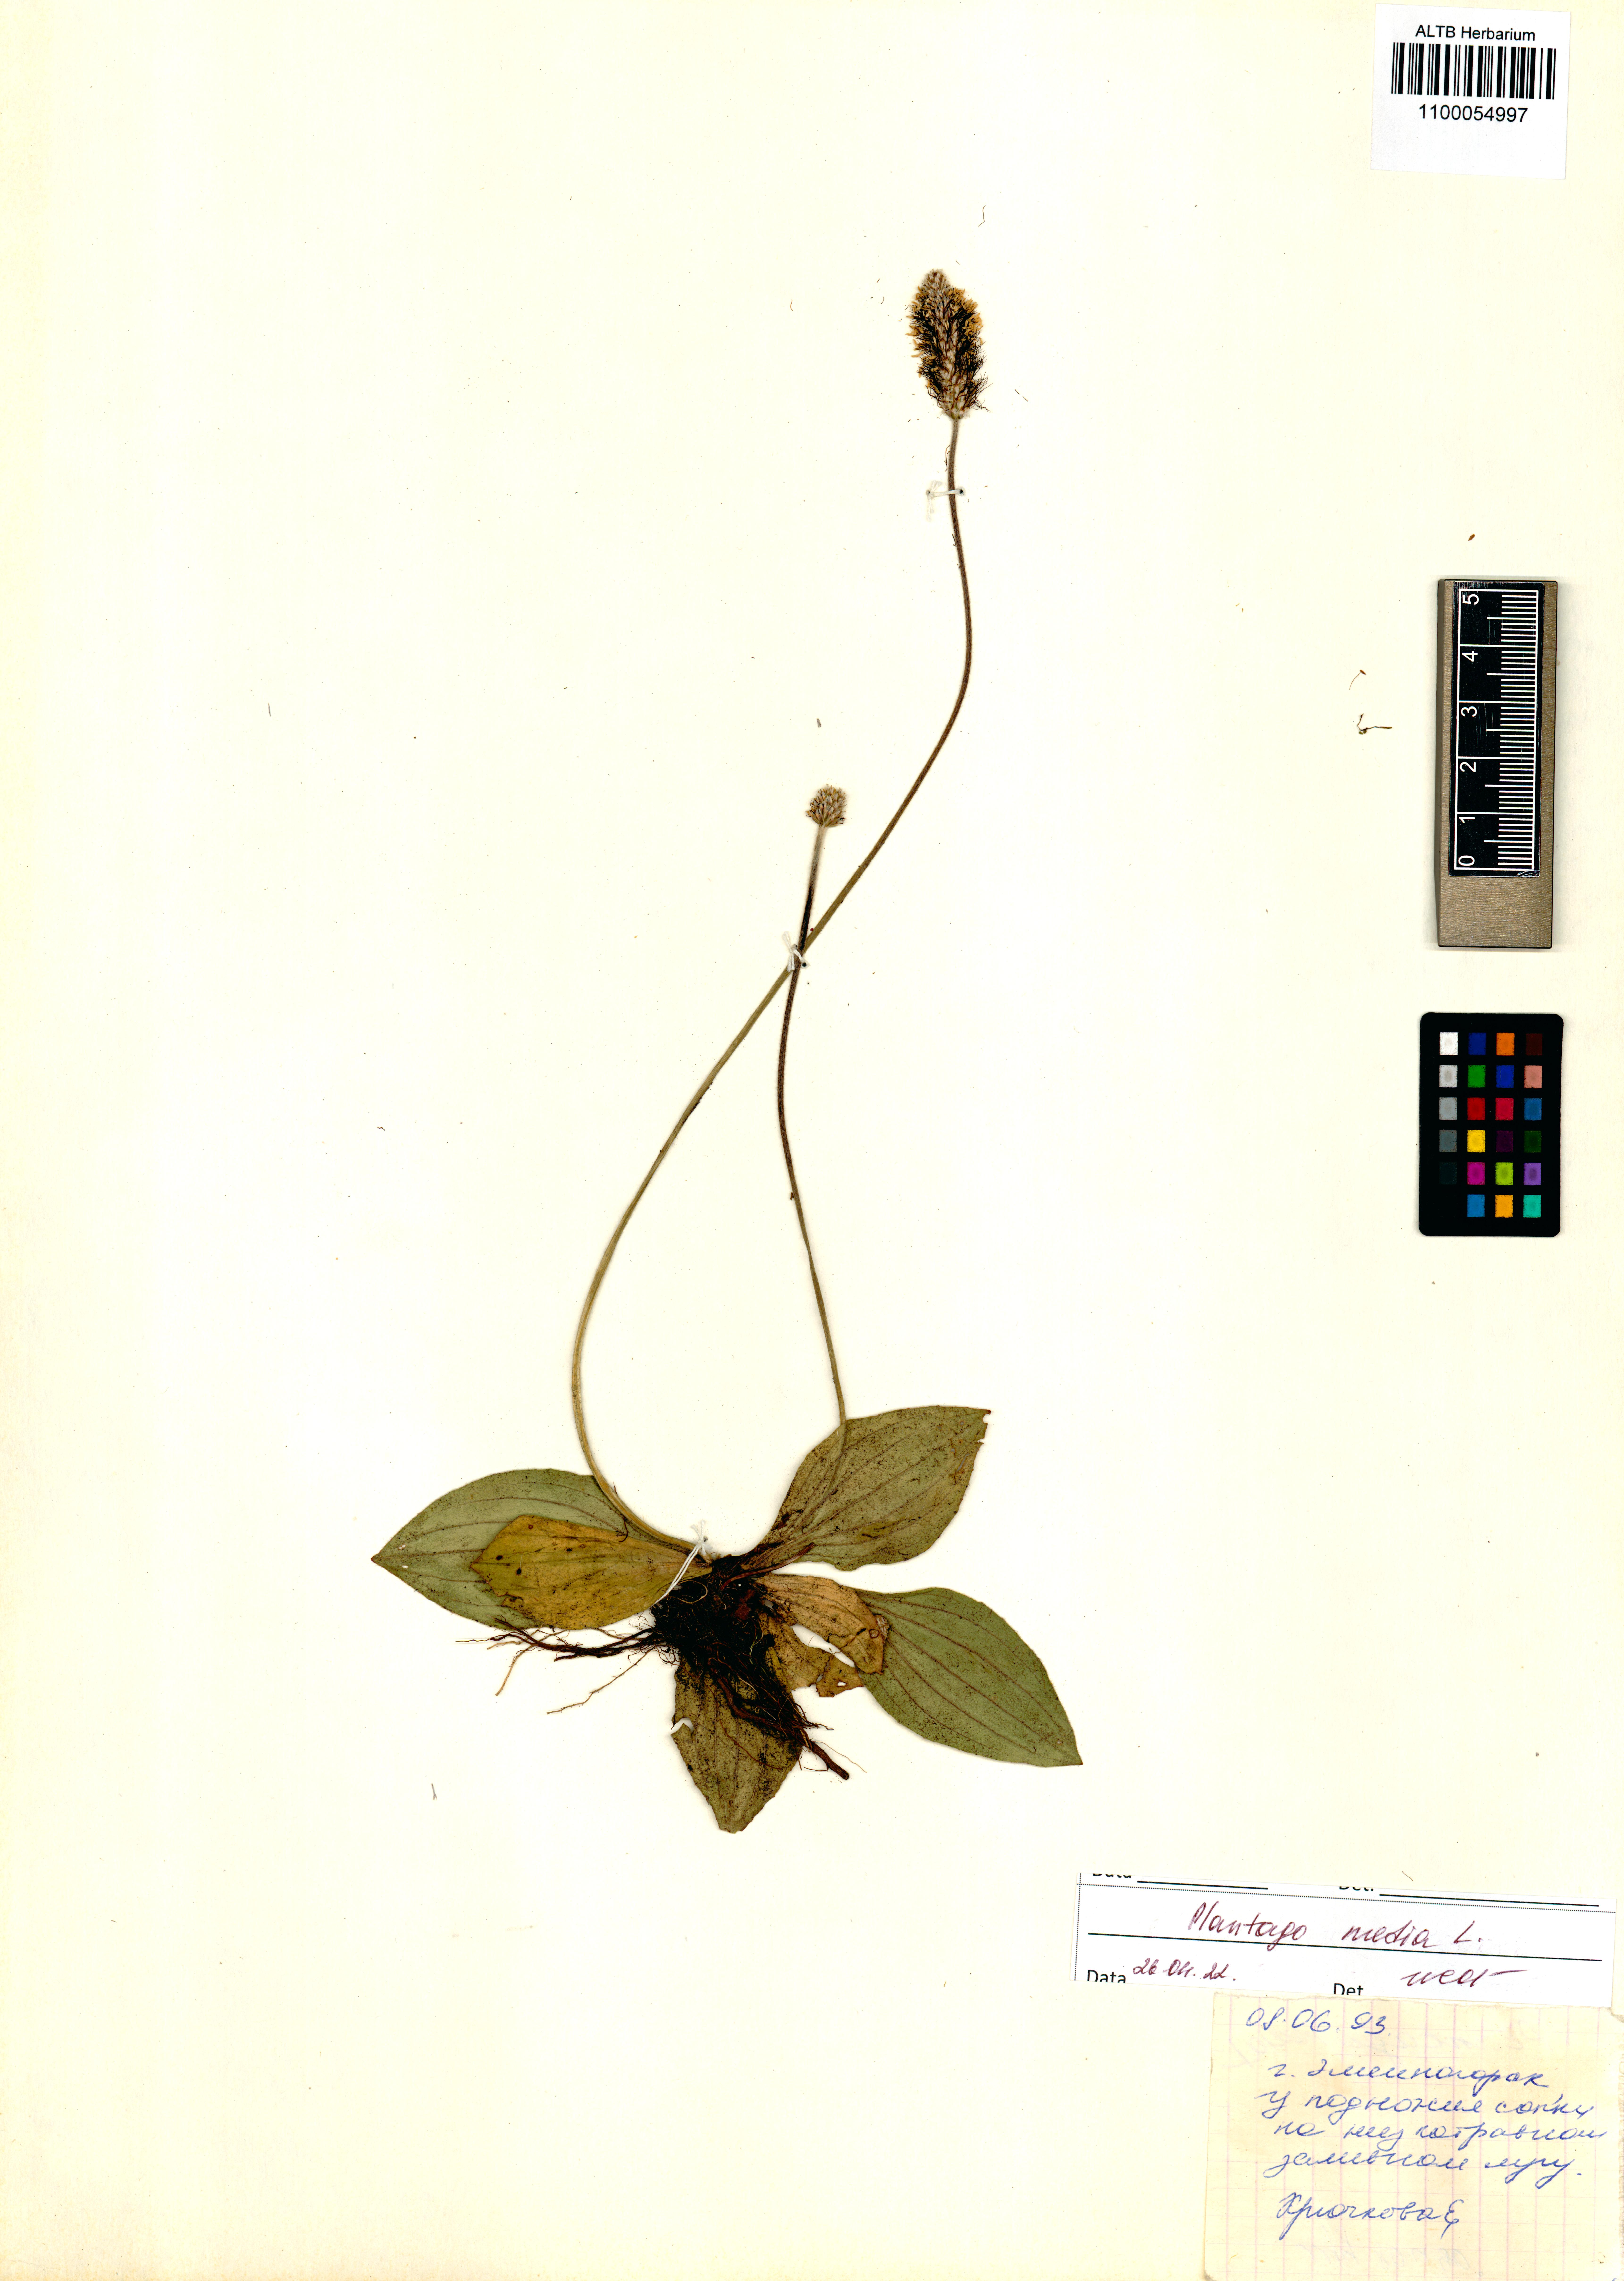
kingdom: Plantae
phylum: Tracheophyta
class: Magnoliopsida
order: Lamiales
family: Plantaginaceae
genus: Plantago
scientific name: Plantago media
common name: Hoary plantain
